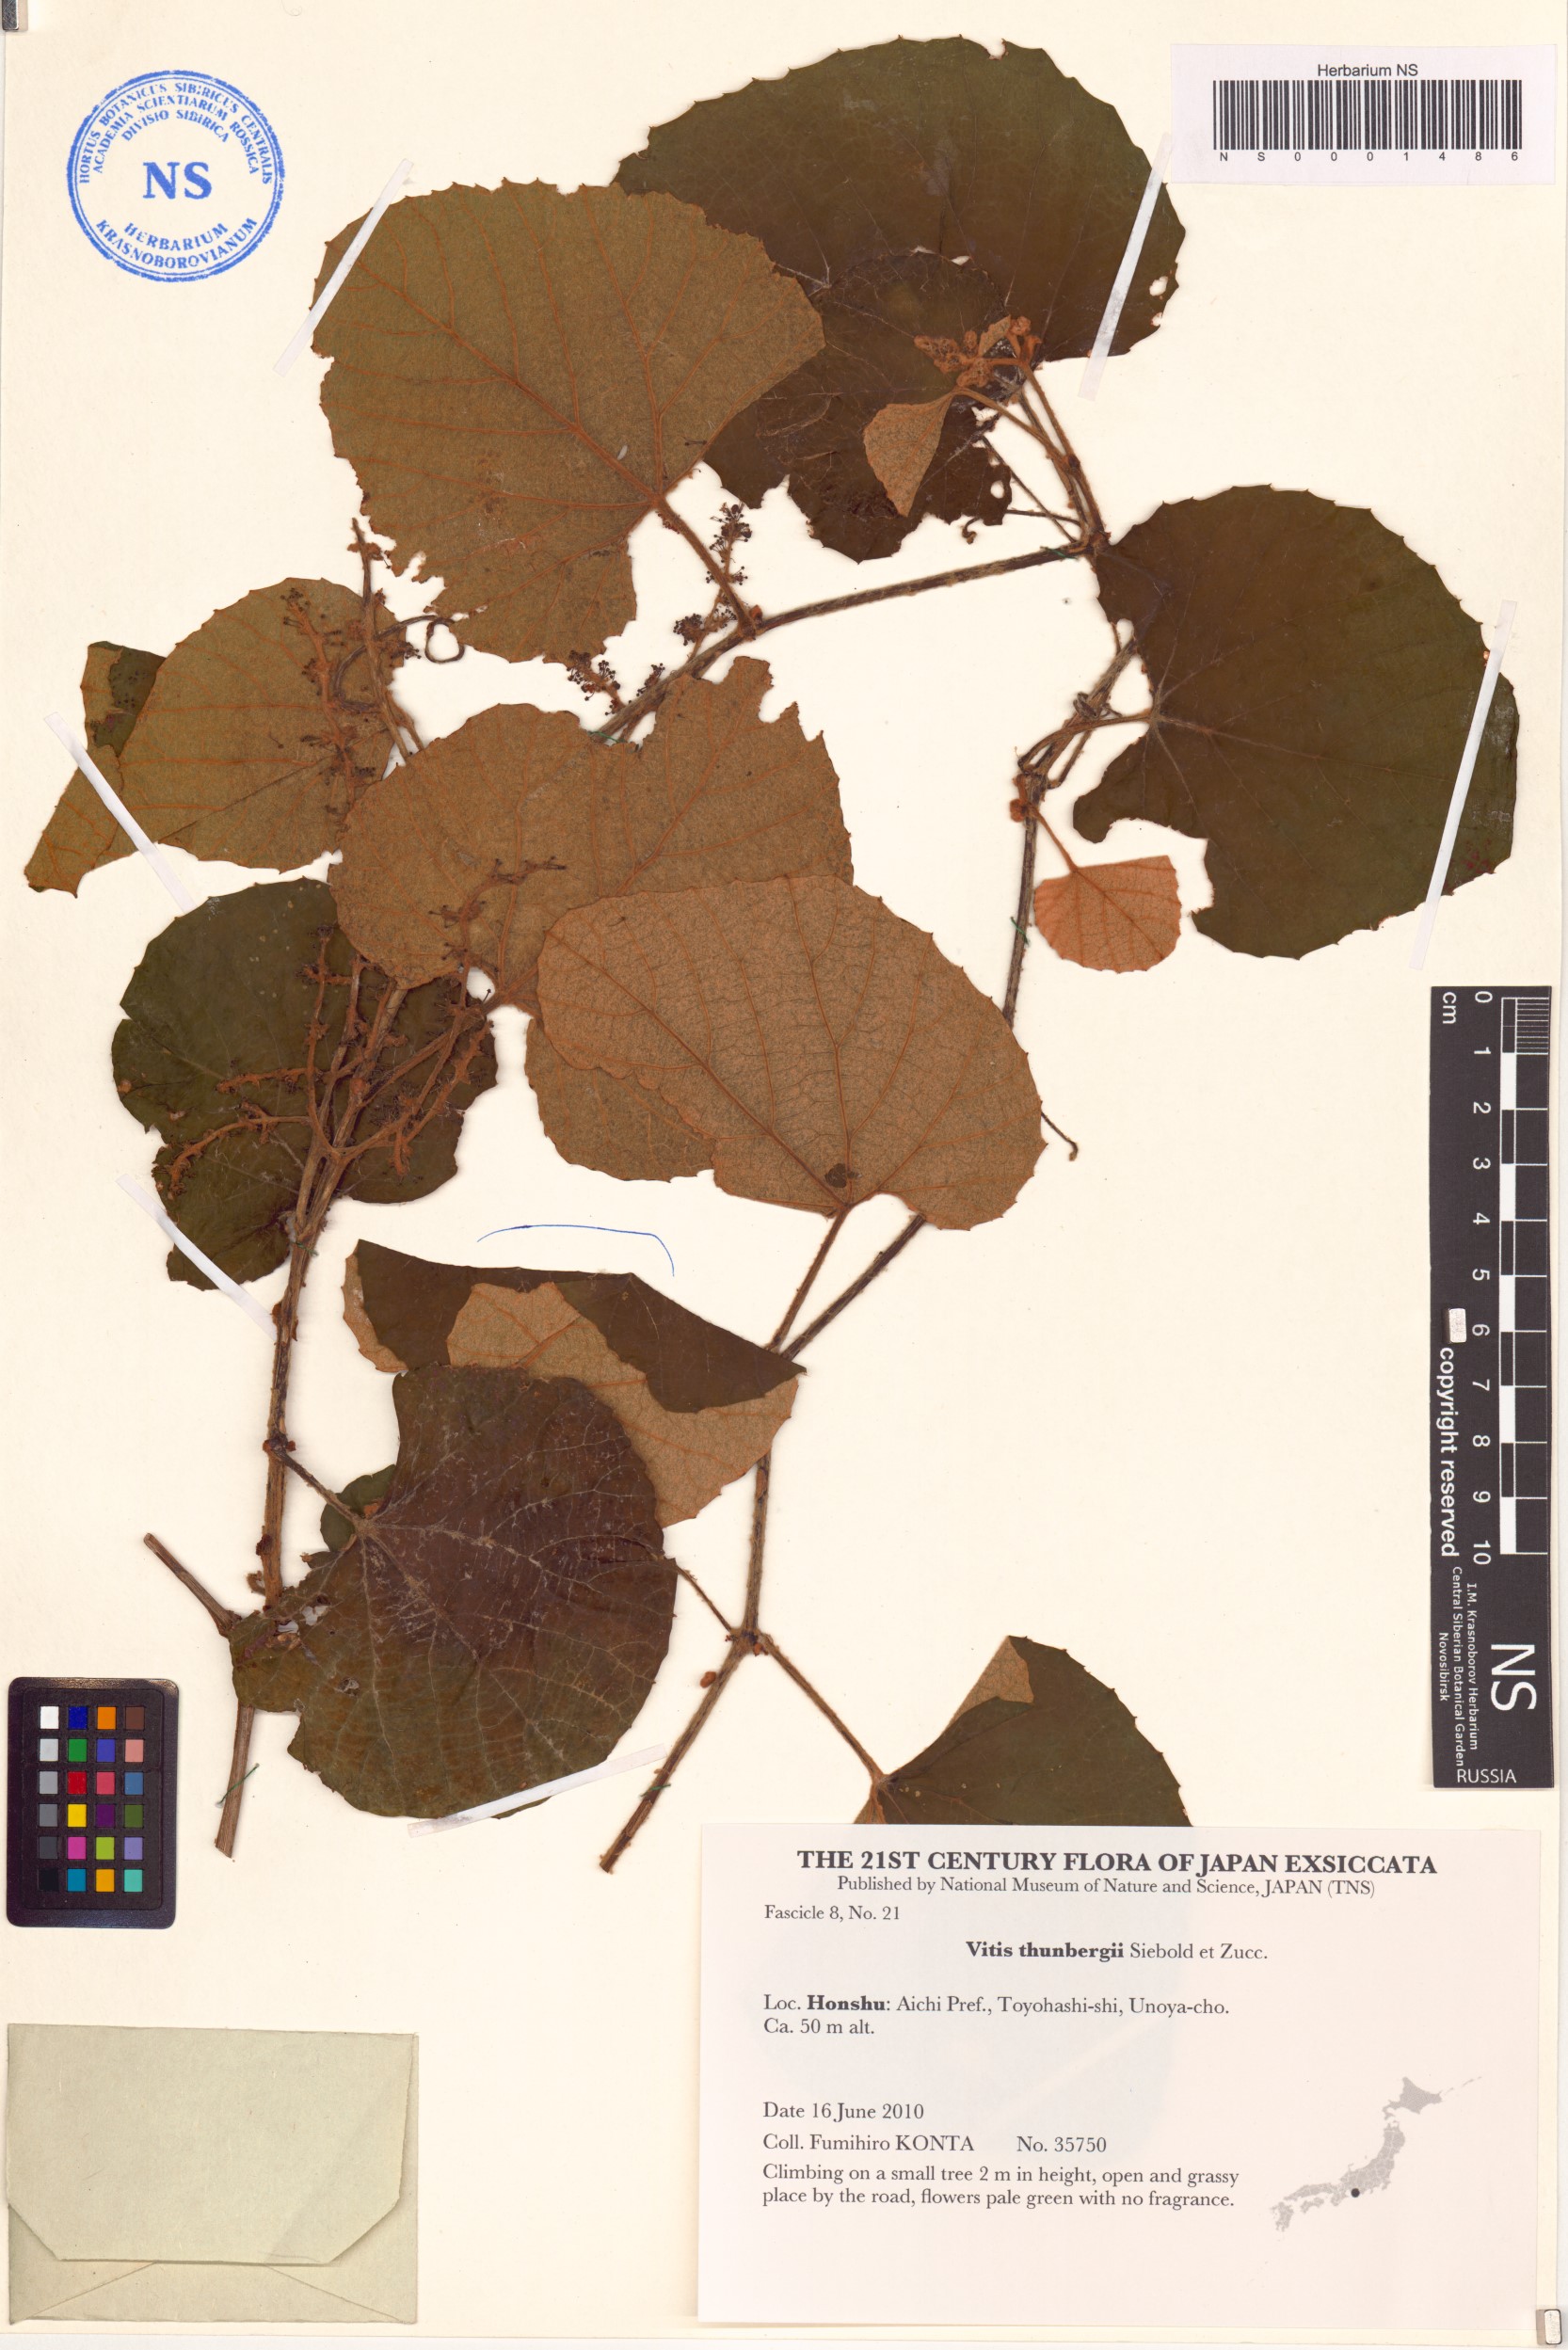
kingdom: Plantae
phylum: Tracheophyta
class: Magnoliopsida
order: Vitales
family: Vitaceae
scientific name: Vitaceae
